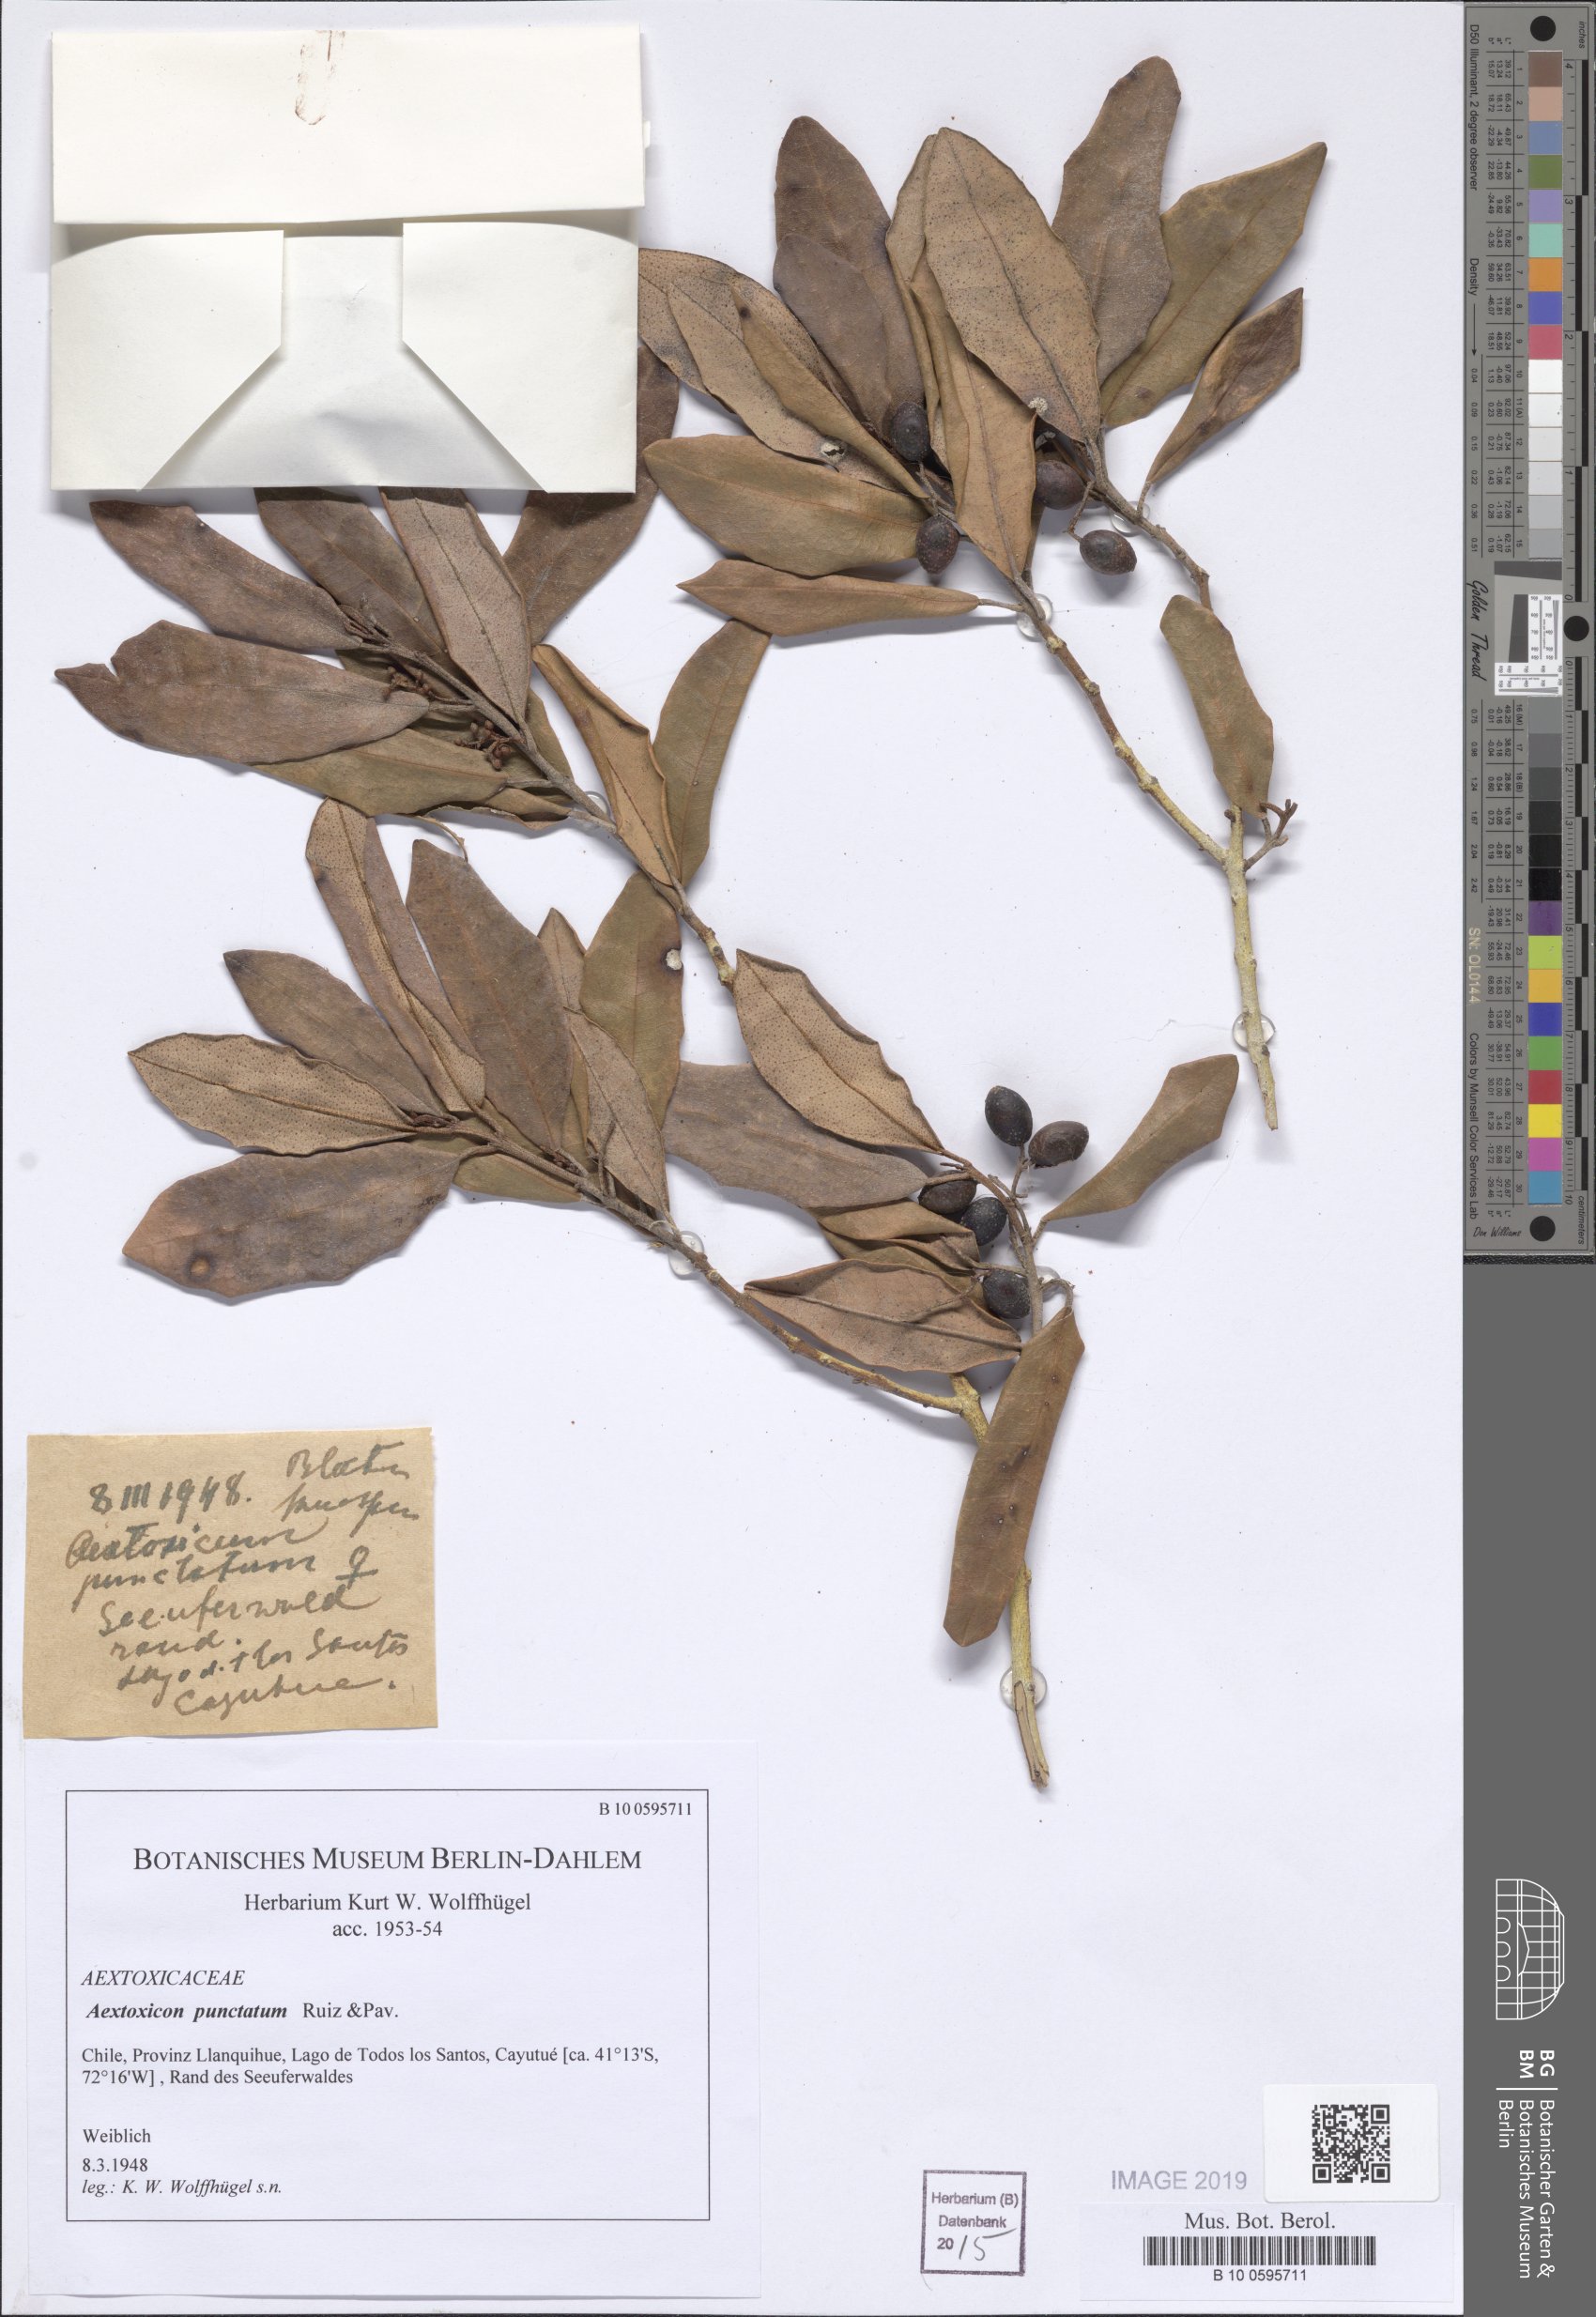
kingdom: Plantae
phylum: Tracheophyta
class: Magnoliopsida
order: Berberidopsidales
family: Aextoxicaceae
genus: Aextoxicon
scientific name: Aextoxicon punctatum
